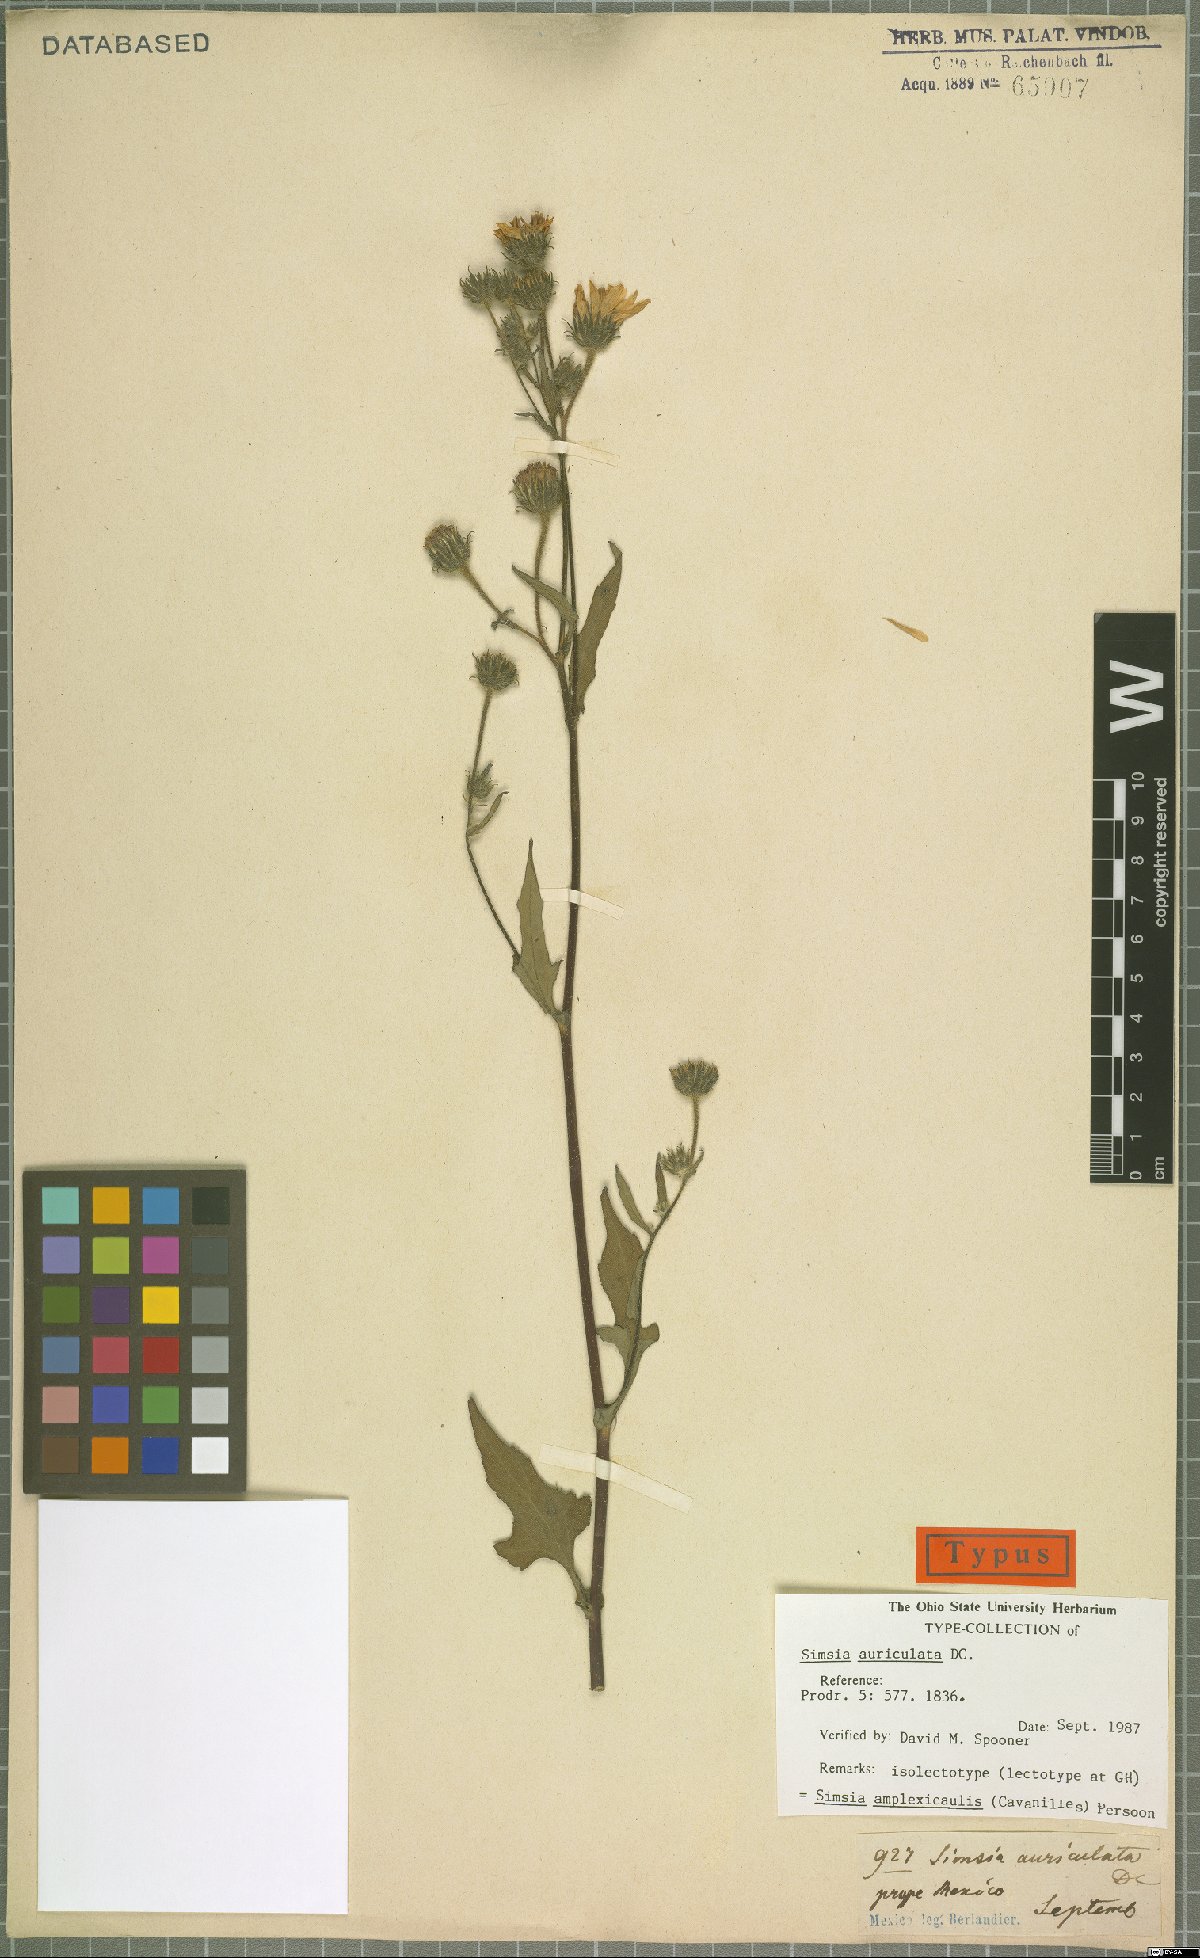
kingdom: Plantae
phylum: Tracheophyta
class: Magnoliopsida
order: Asterales
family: Asteraceae
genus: Simsia
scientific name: Simsia amplexicaulis
